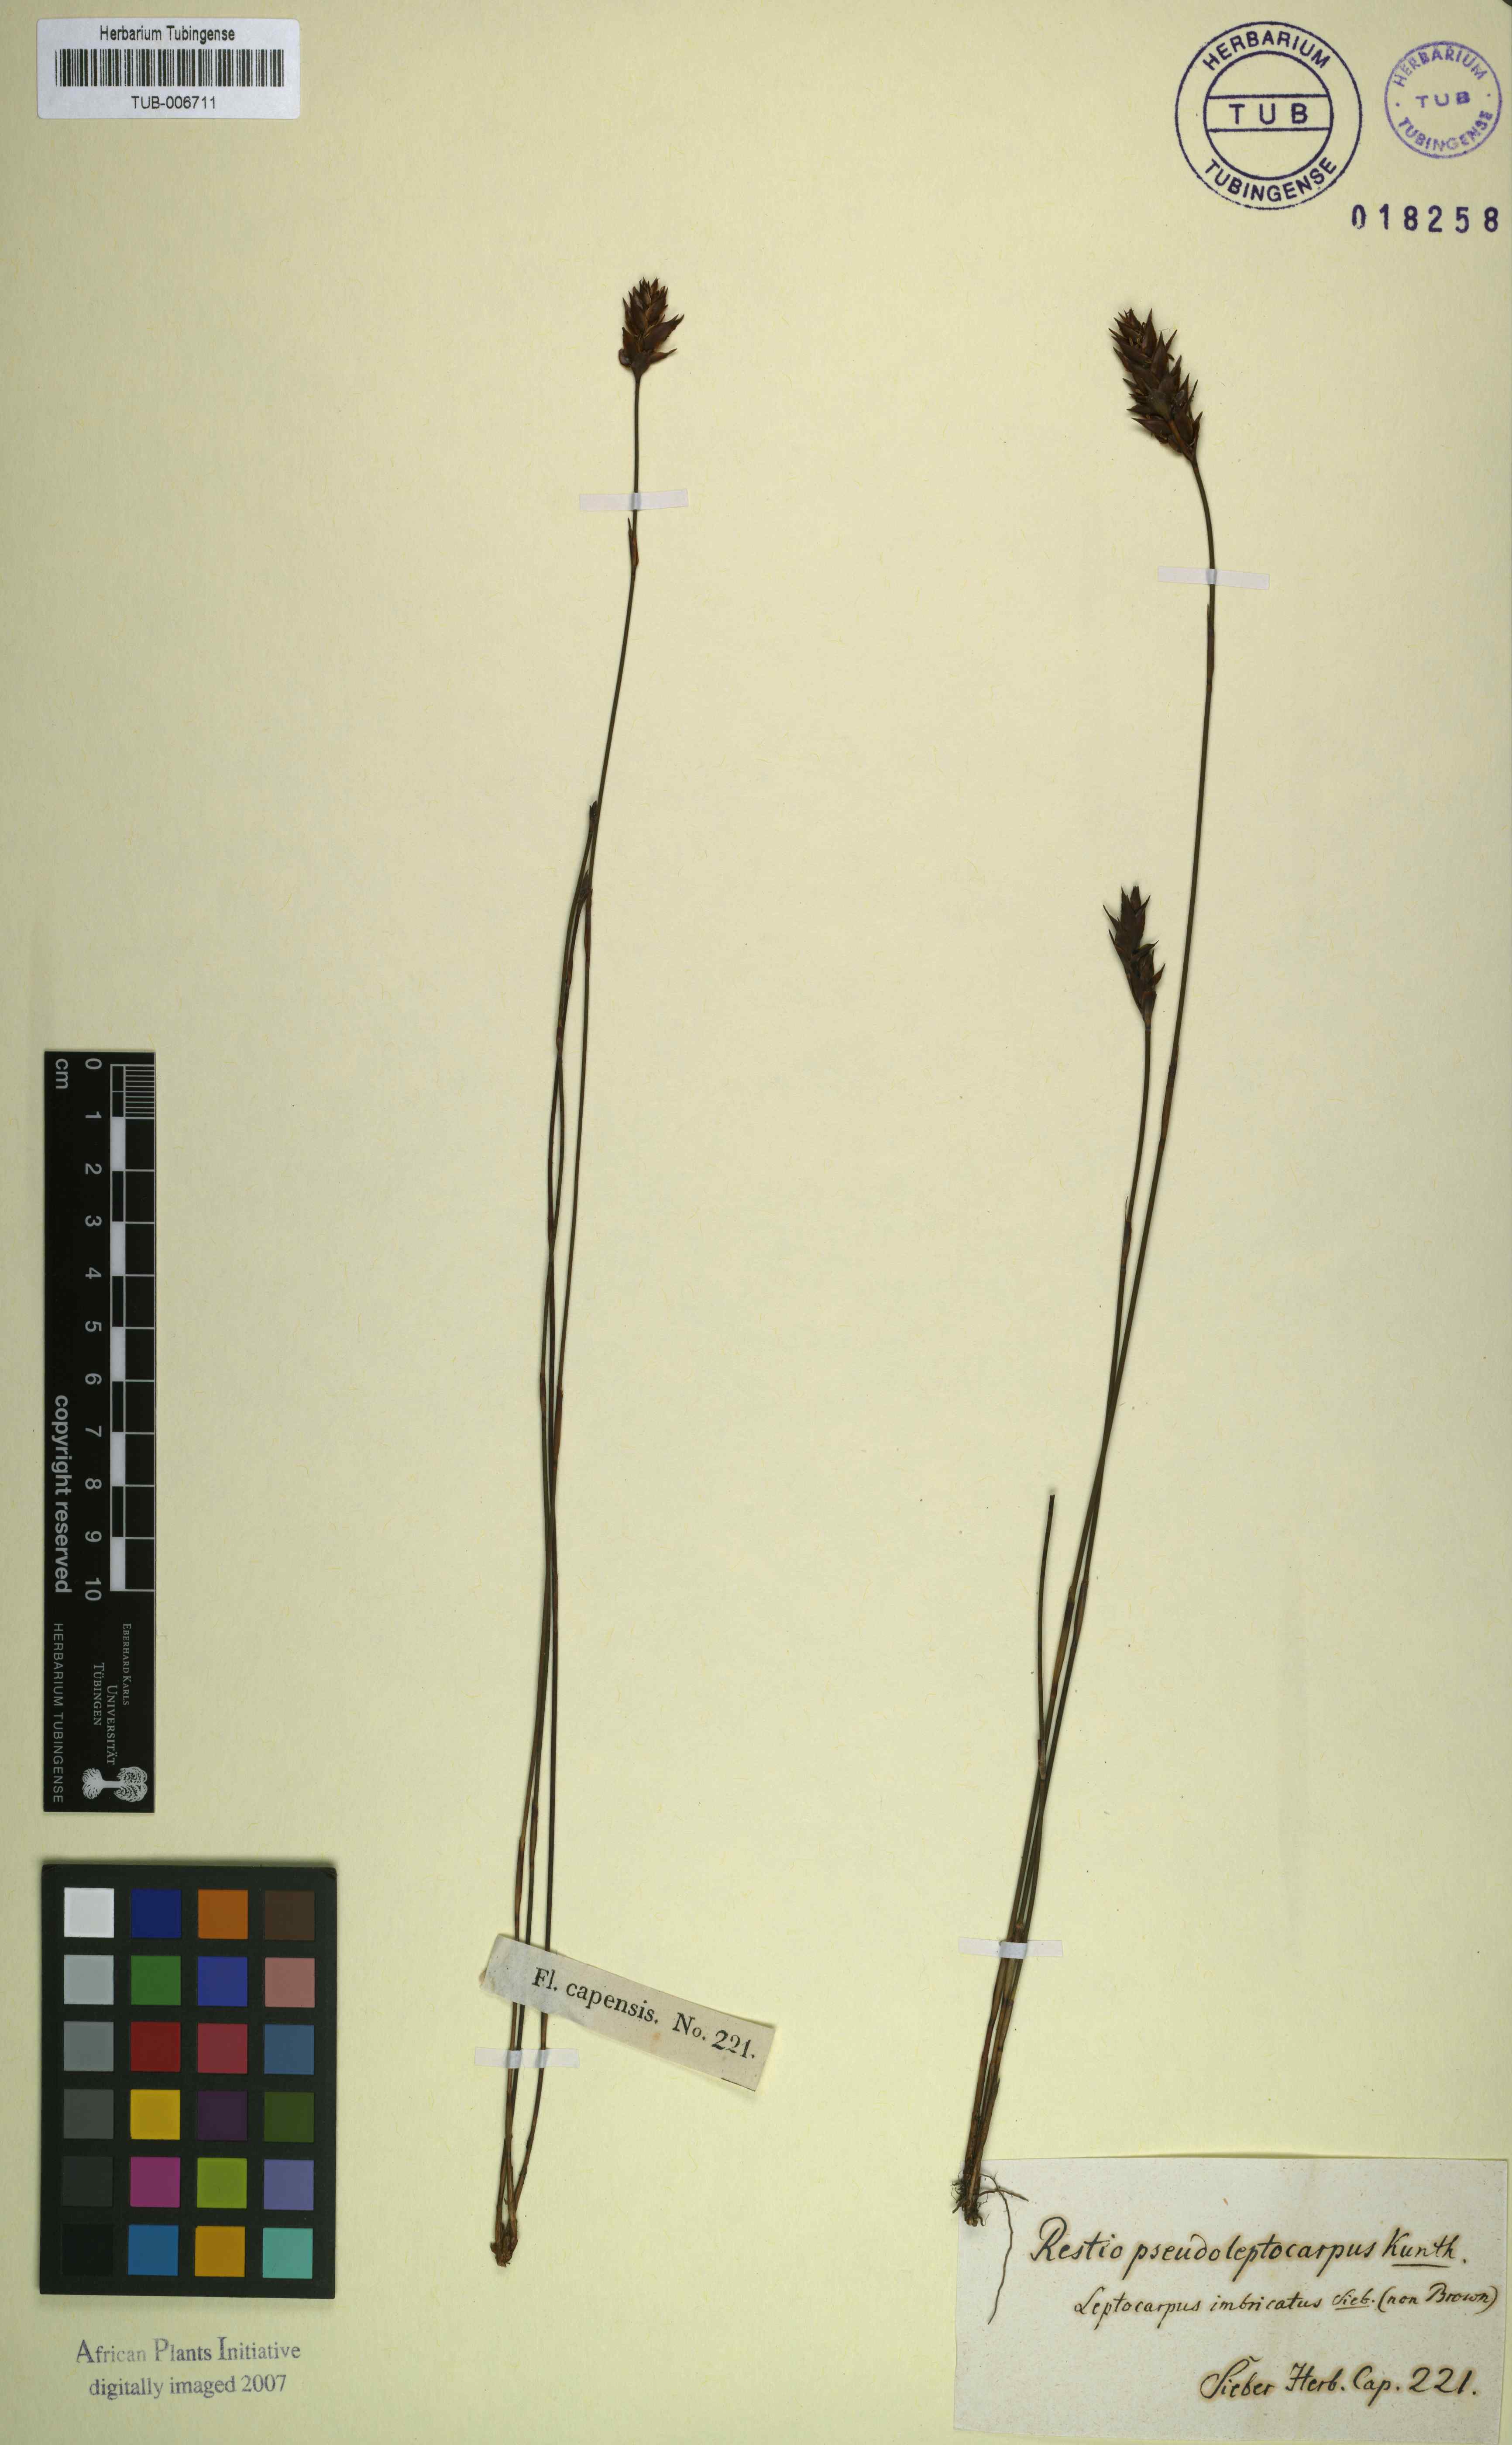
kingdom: Plantae
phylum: Tracheophyta
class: Liliopsida
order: Poales
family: Restionaceae
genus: Restio
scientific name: Restio bifidus
